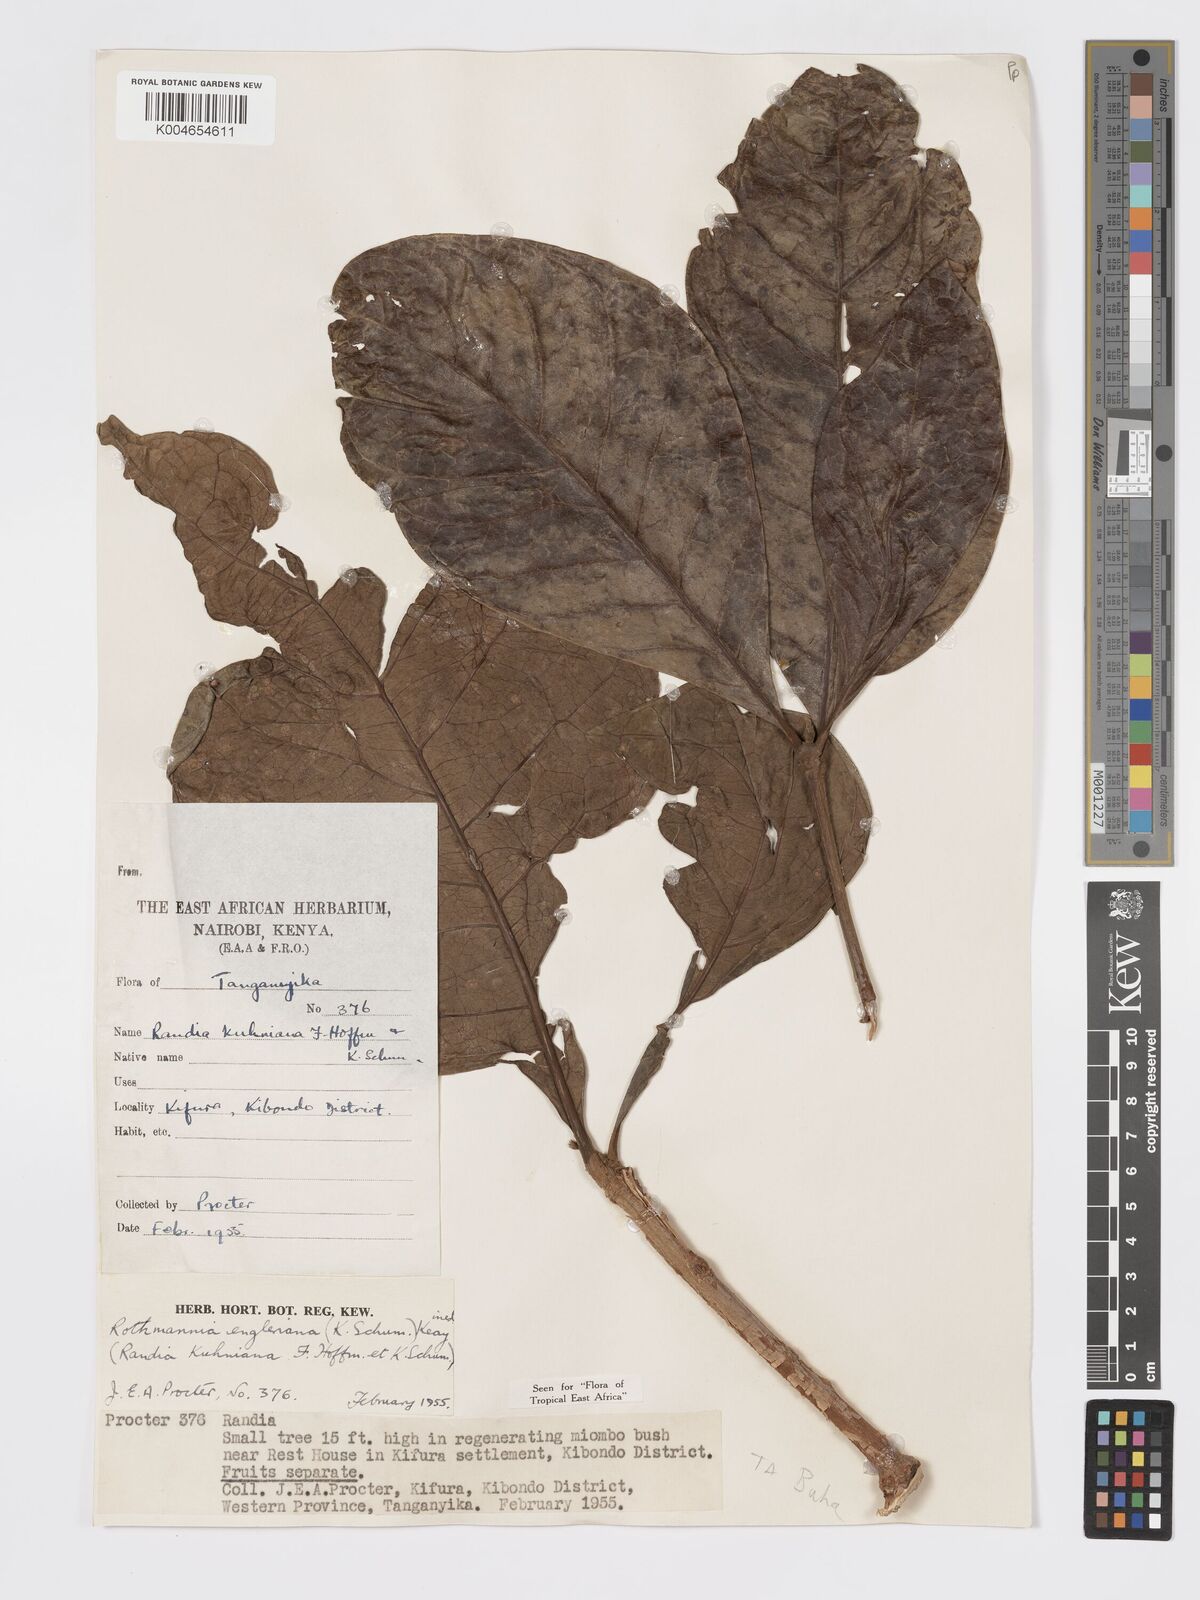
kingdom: Plantae
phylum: Tracheophyta
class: Magnoliopsida
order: Gentianales
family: Rubiaceae
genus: Rothmannia
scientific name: Rothmannia engleriana
